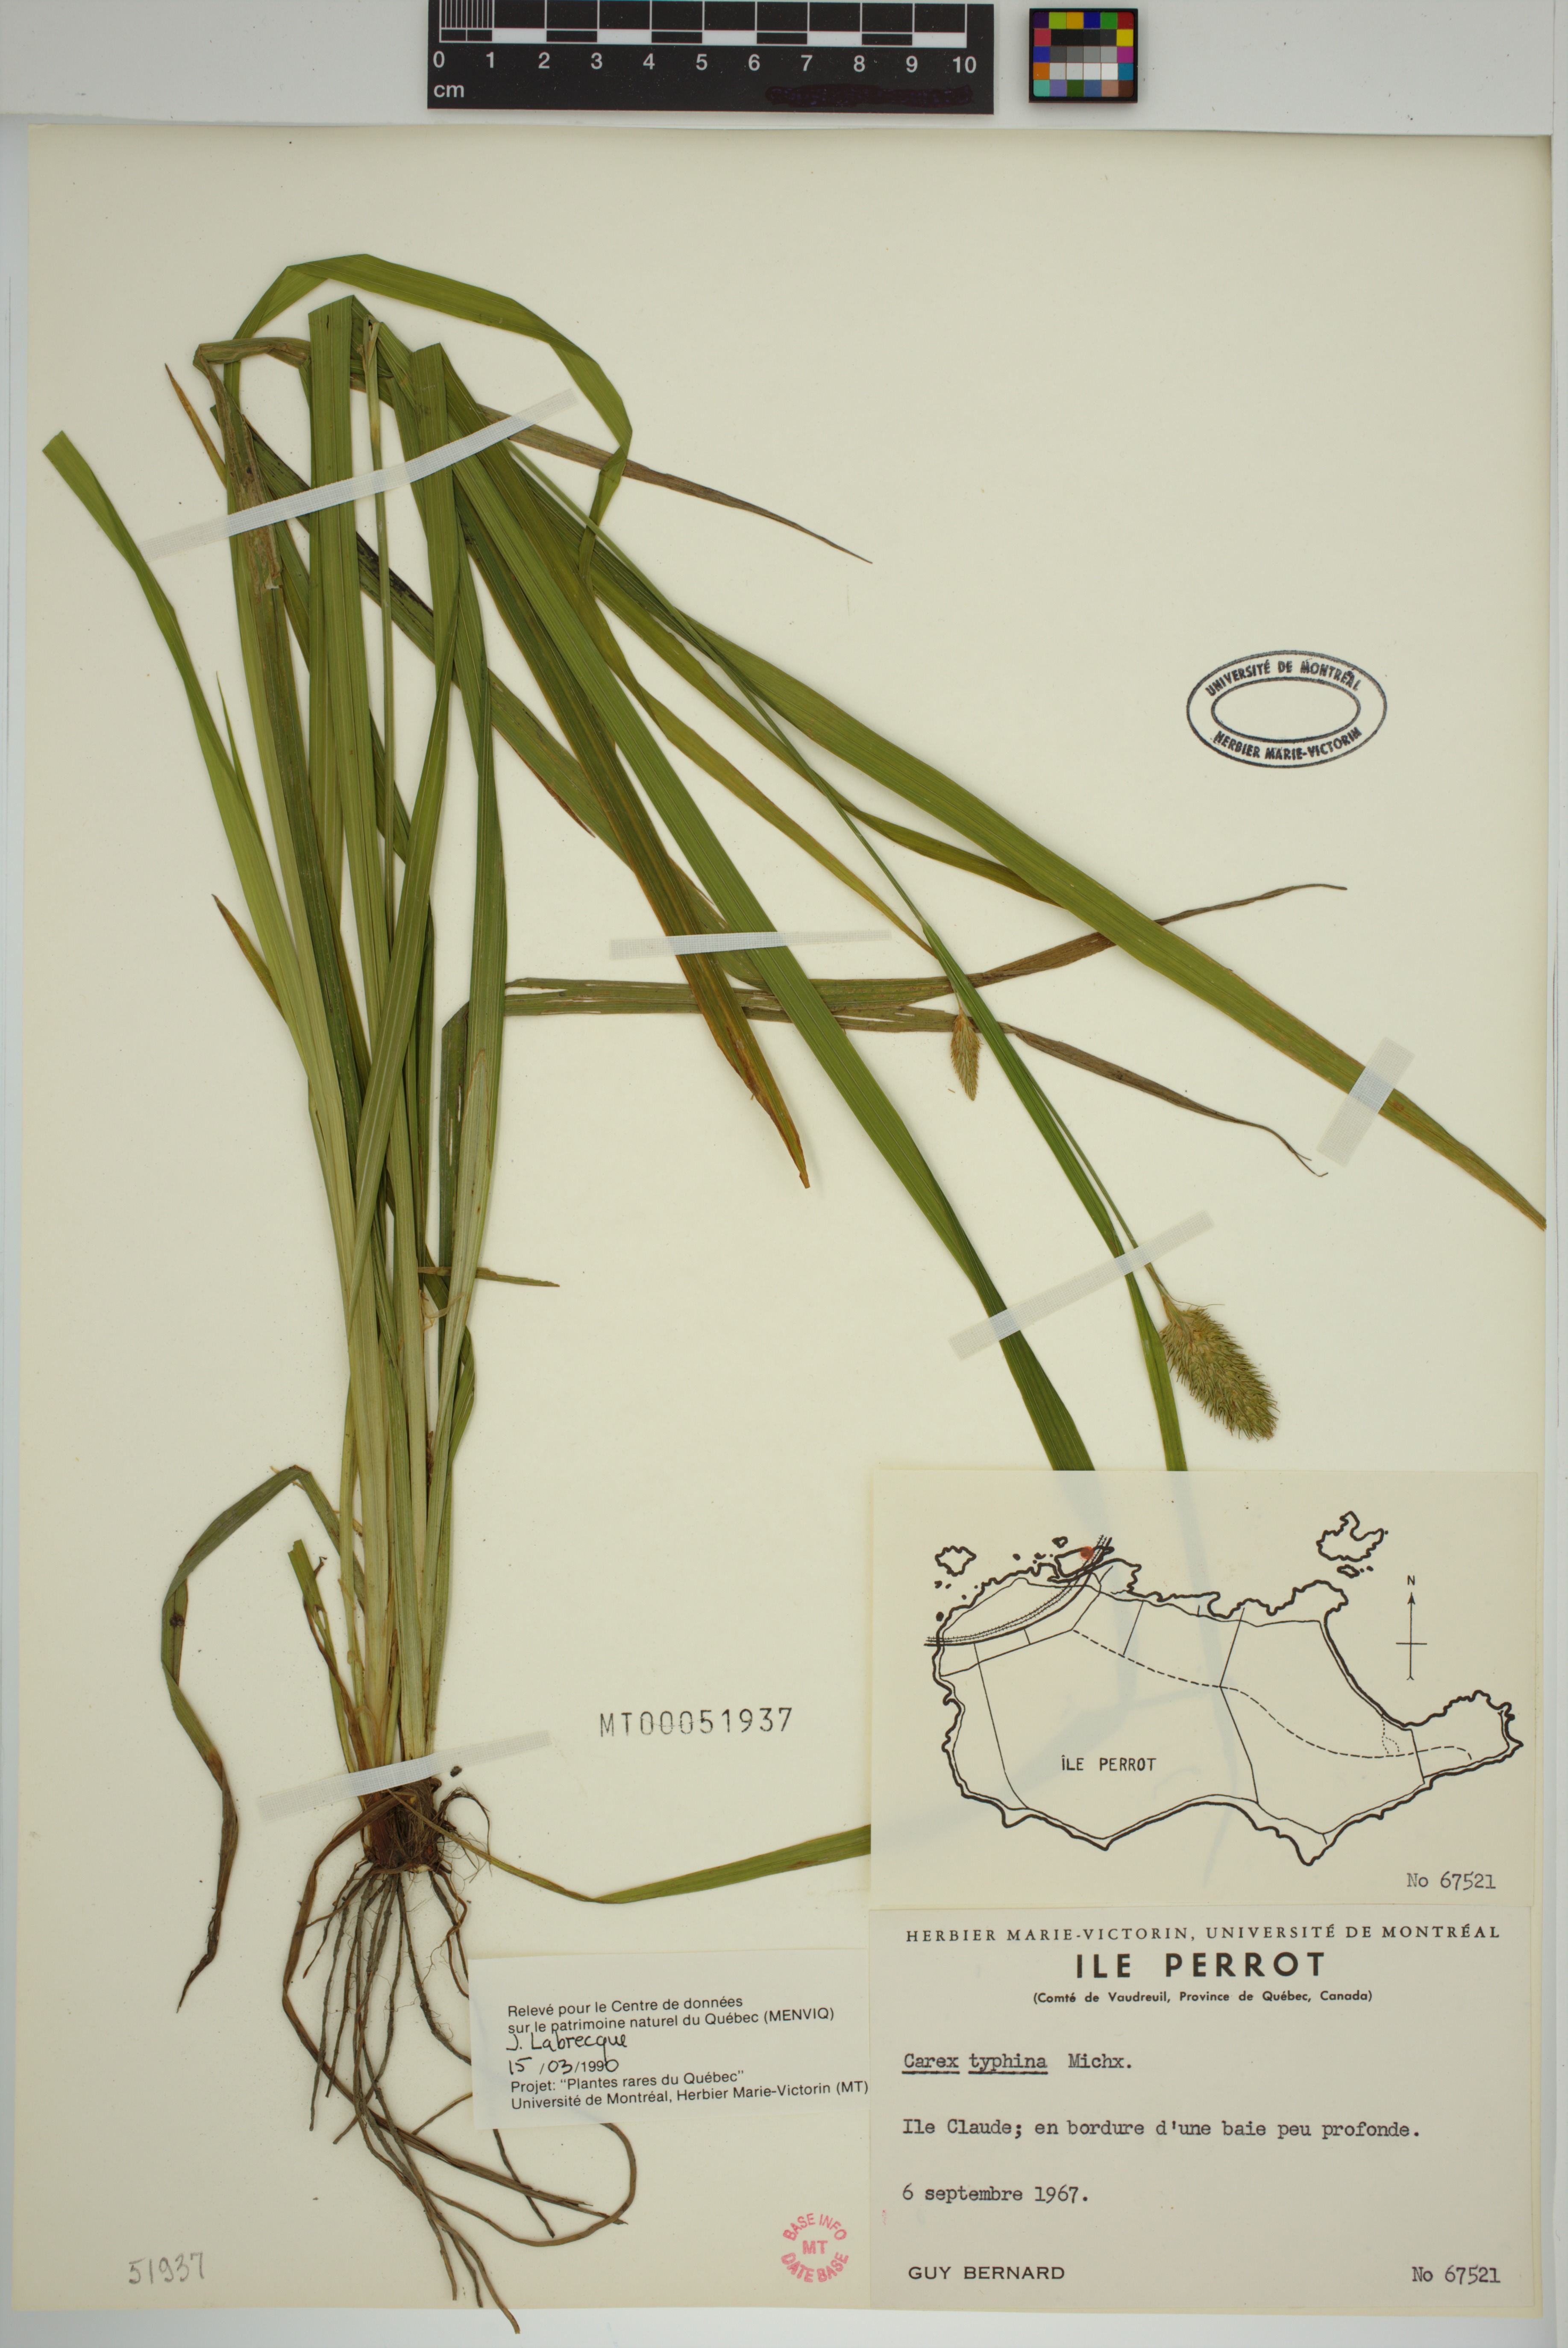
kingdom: Plantae
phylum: Tracheophyta
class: Liliopsida
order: Poales
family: Cyperaceae
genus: Carex
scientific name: Carex typhina
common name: Cattail sedge
